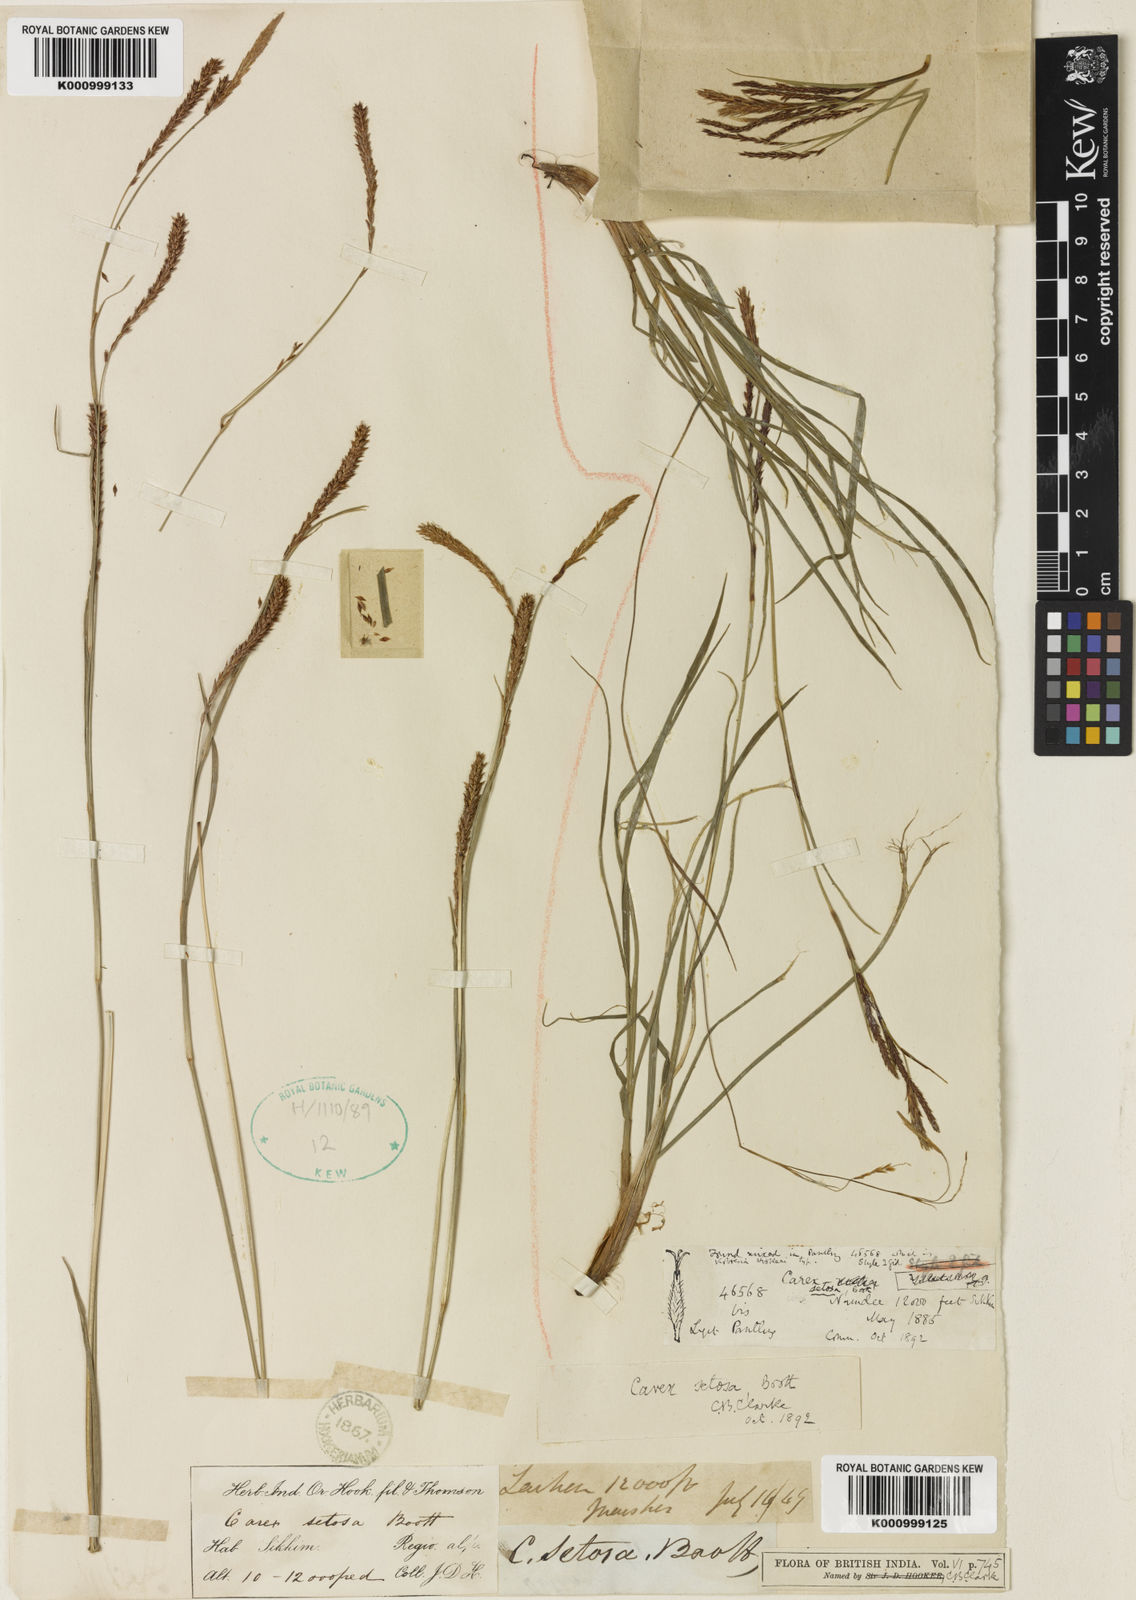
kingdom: Plantae
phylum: Tracheophyta
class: Liliopsida
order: Poales
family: Cyperaceae
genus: Carex
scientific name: Carex setosa
